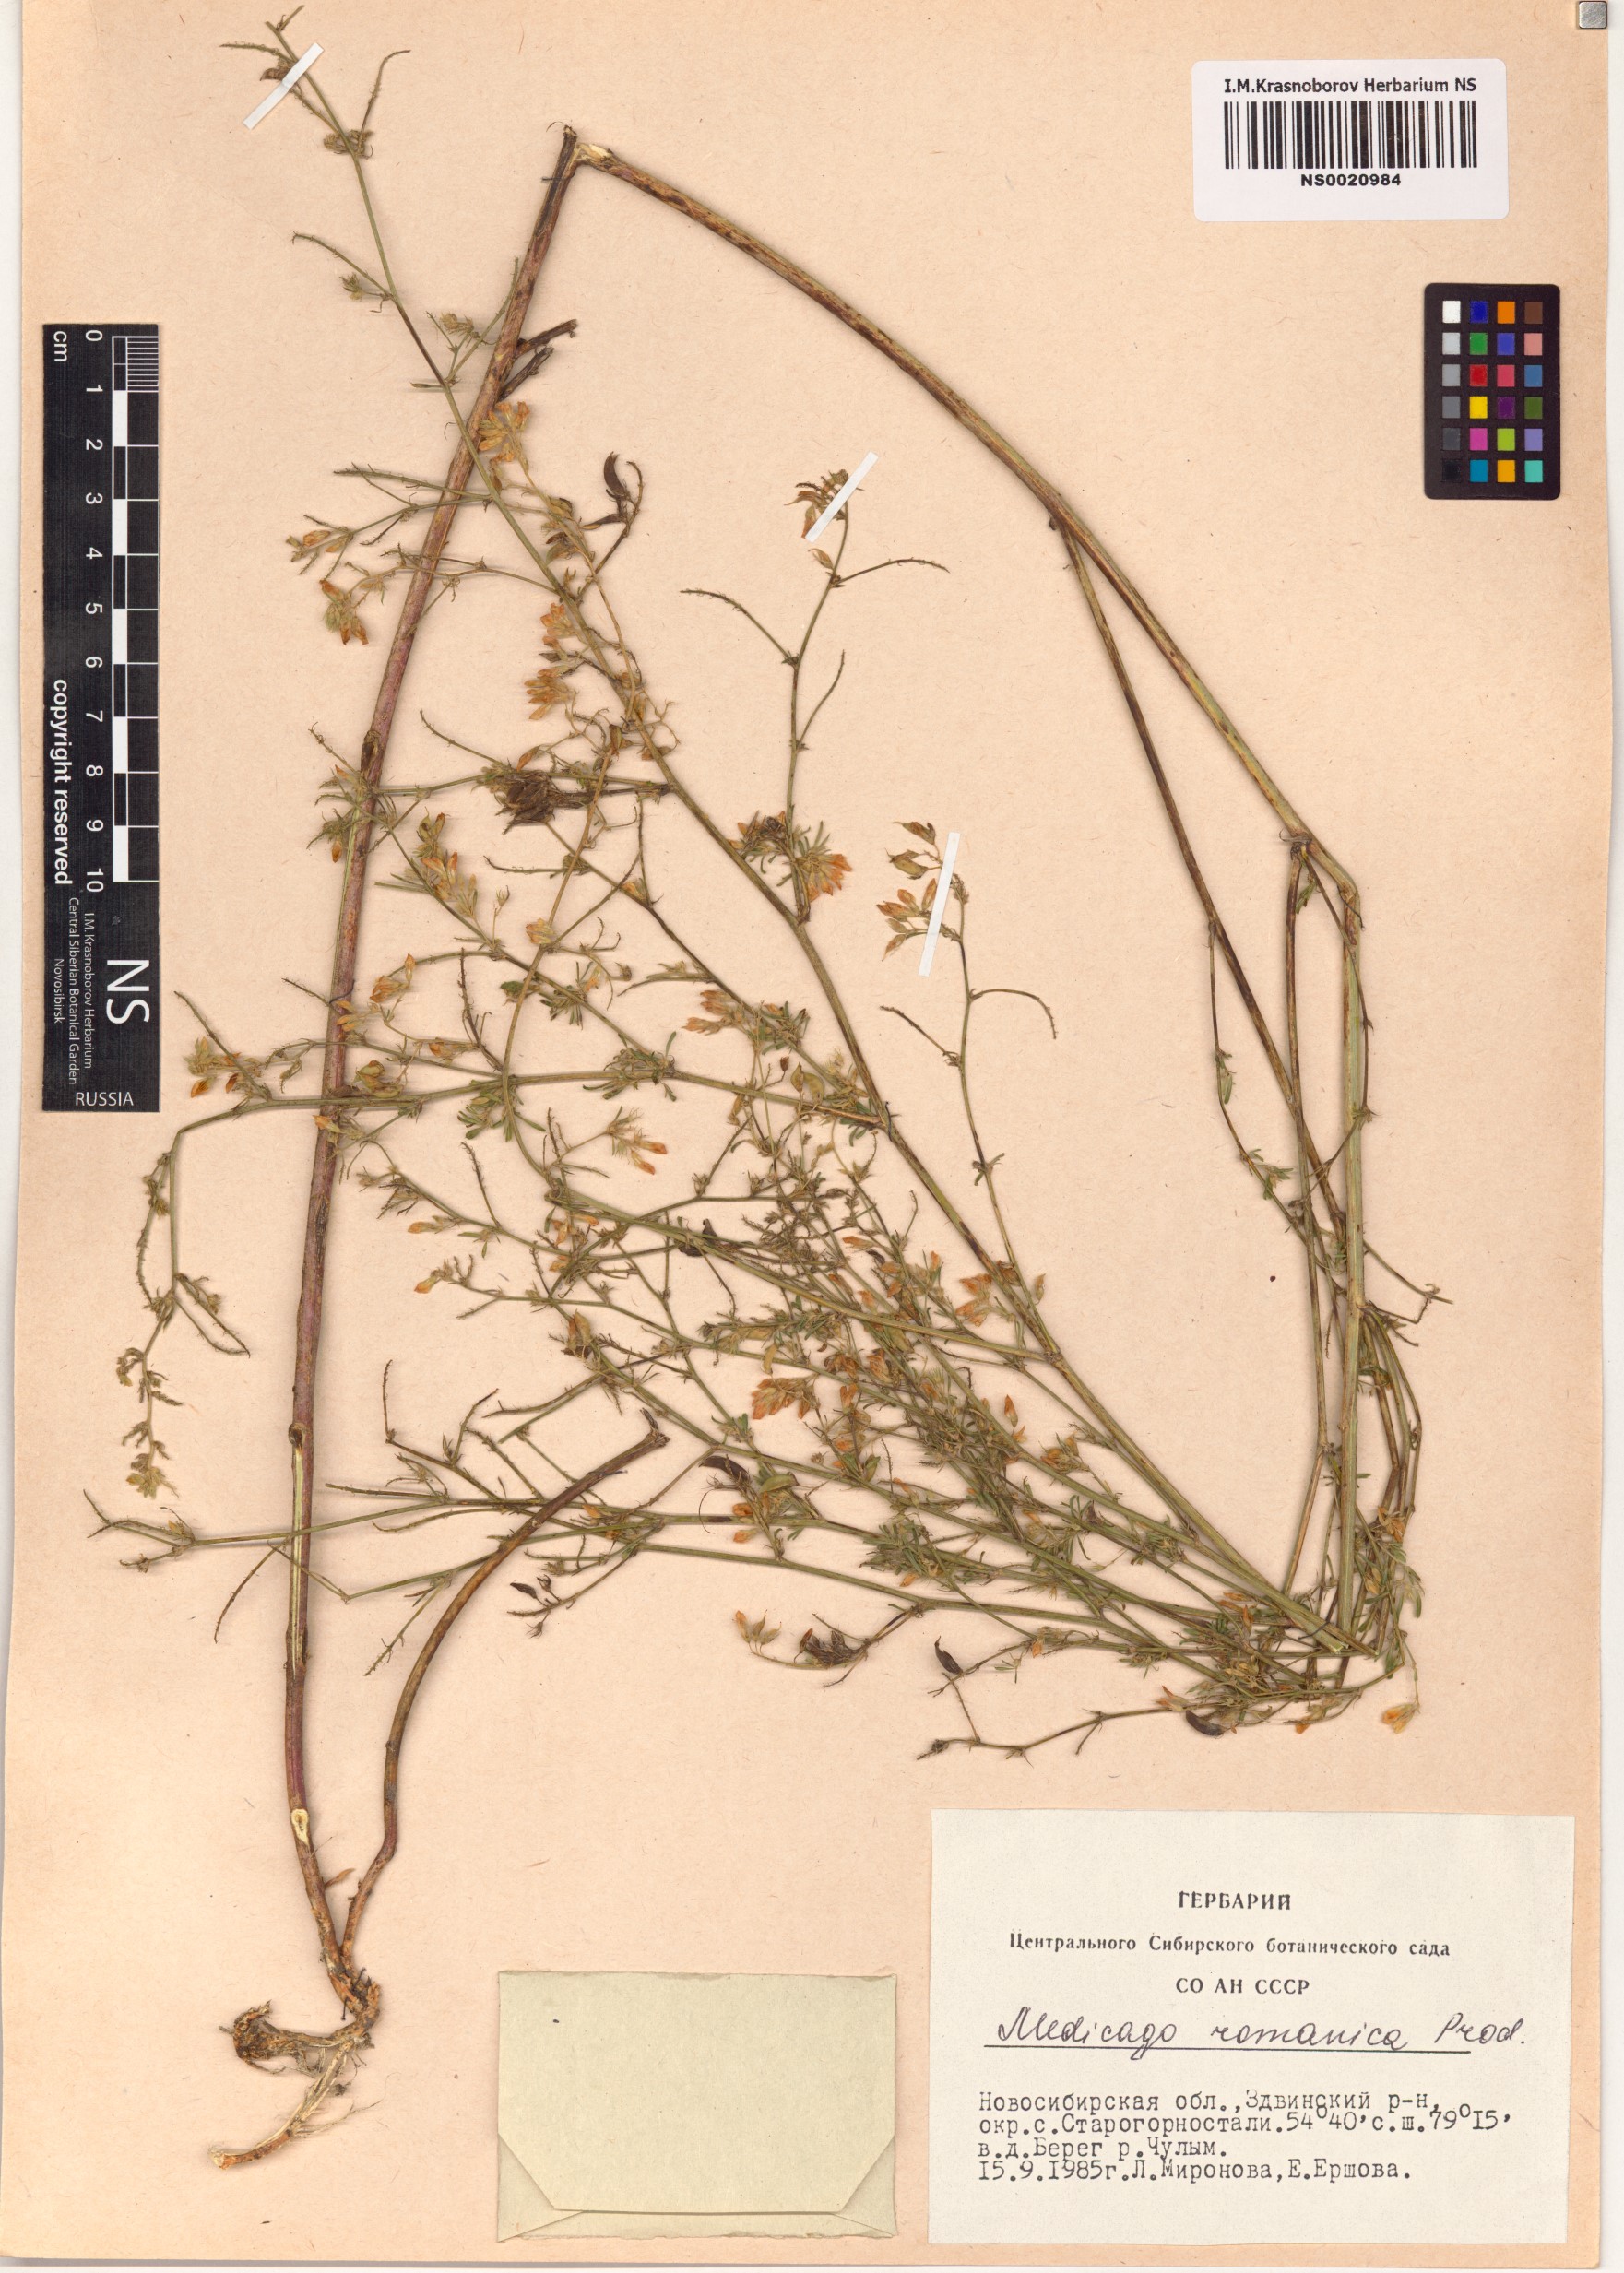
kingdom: Plantae
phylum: Tracheophyta
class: Magnoliopsida
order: Fabales
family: Fabaceae
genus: Medicago
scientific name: Medicago falcata
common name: Sickle medick
